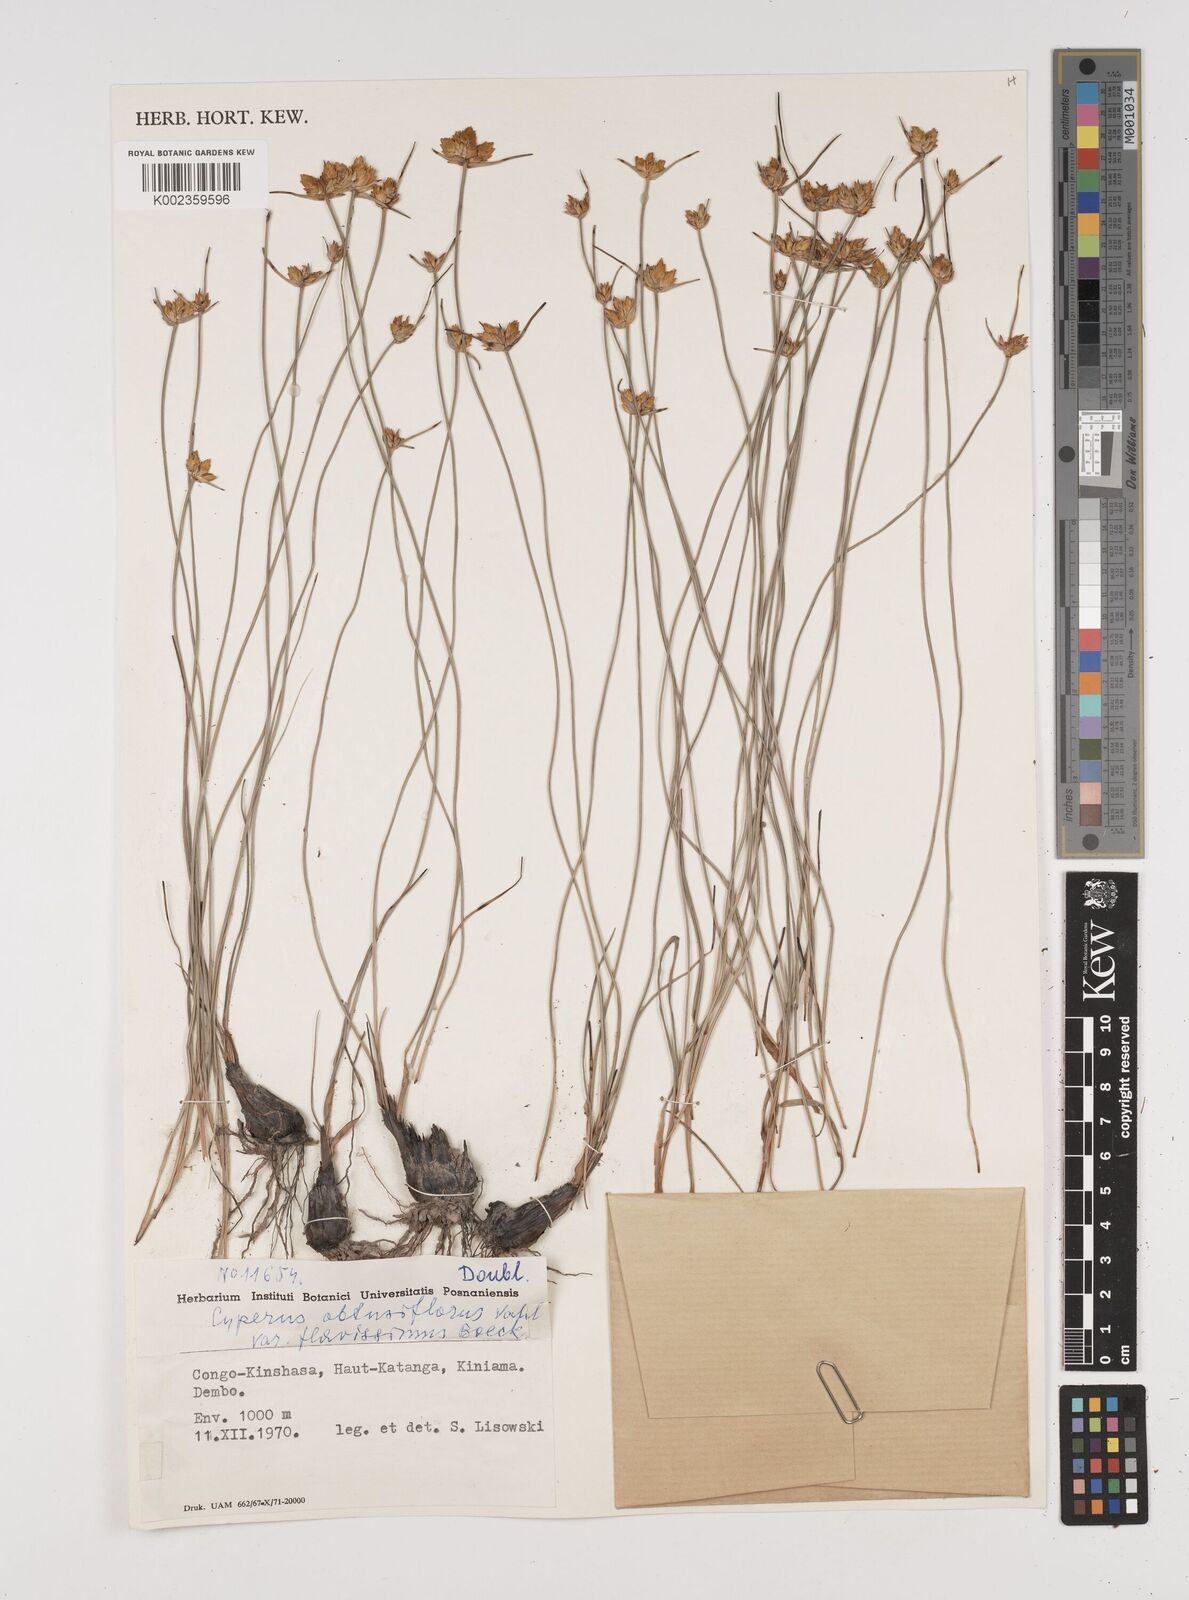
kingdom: Plantae
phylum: Tracheophyta
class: Liliopsida
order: Poales
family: Cyperaceae
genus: Cyperus
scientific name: Cyperus kibweanus
